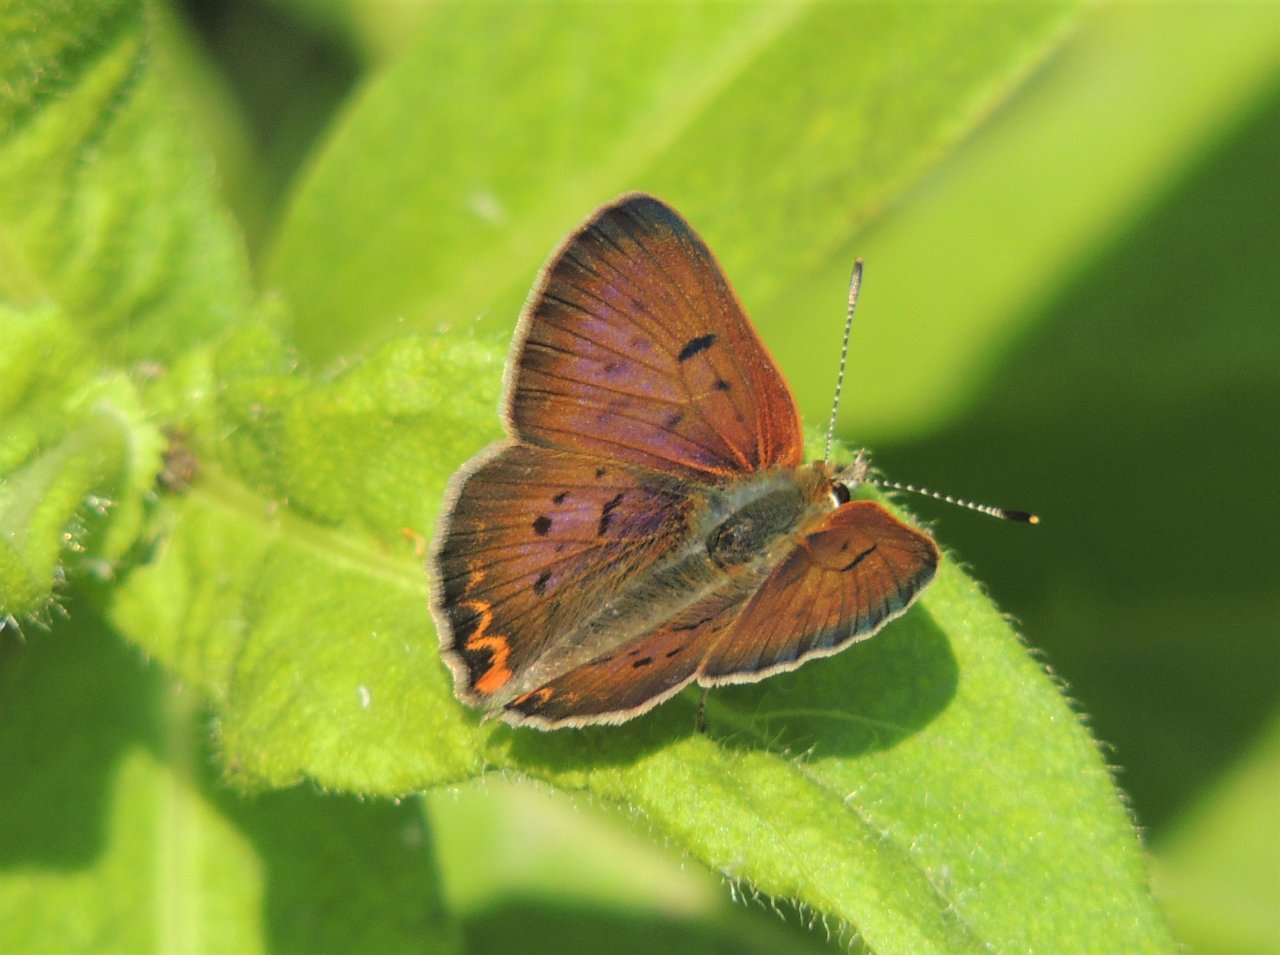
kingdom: Animalia
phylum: Arthropoda
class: Insecta
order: Lepidoptera
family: Sesiidae
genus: Sesia
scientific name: Sesia Lycaena helloides
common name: Purplish Copper
